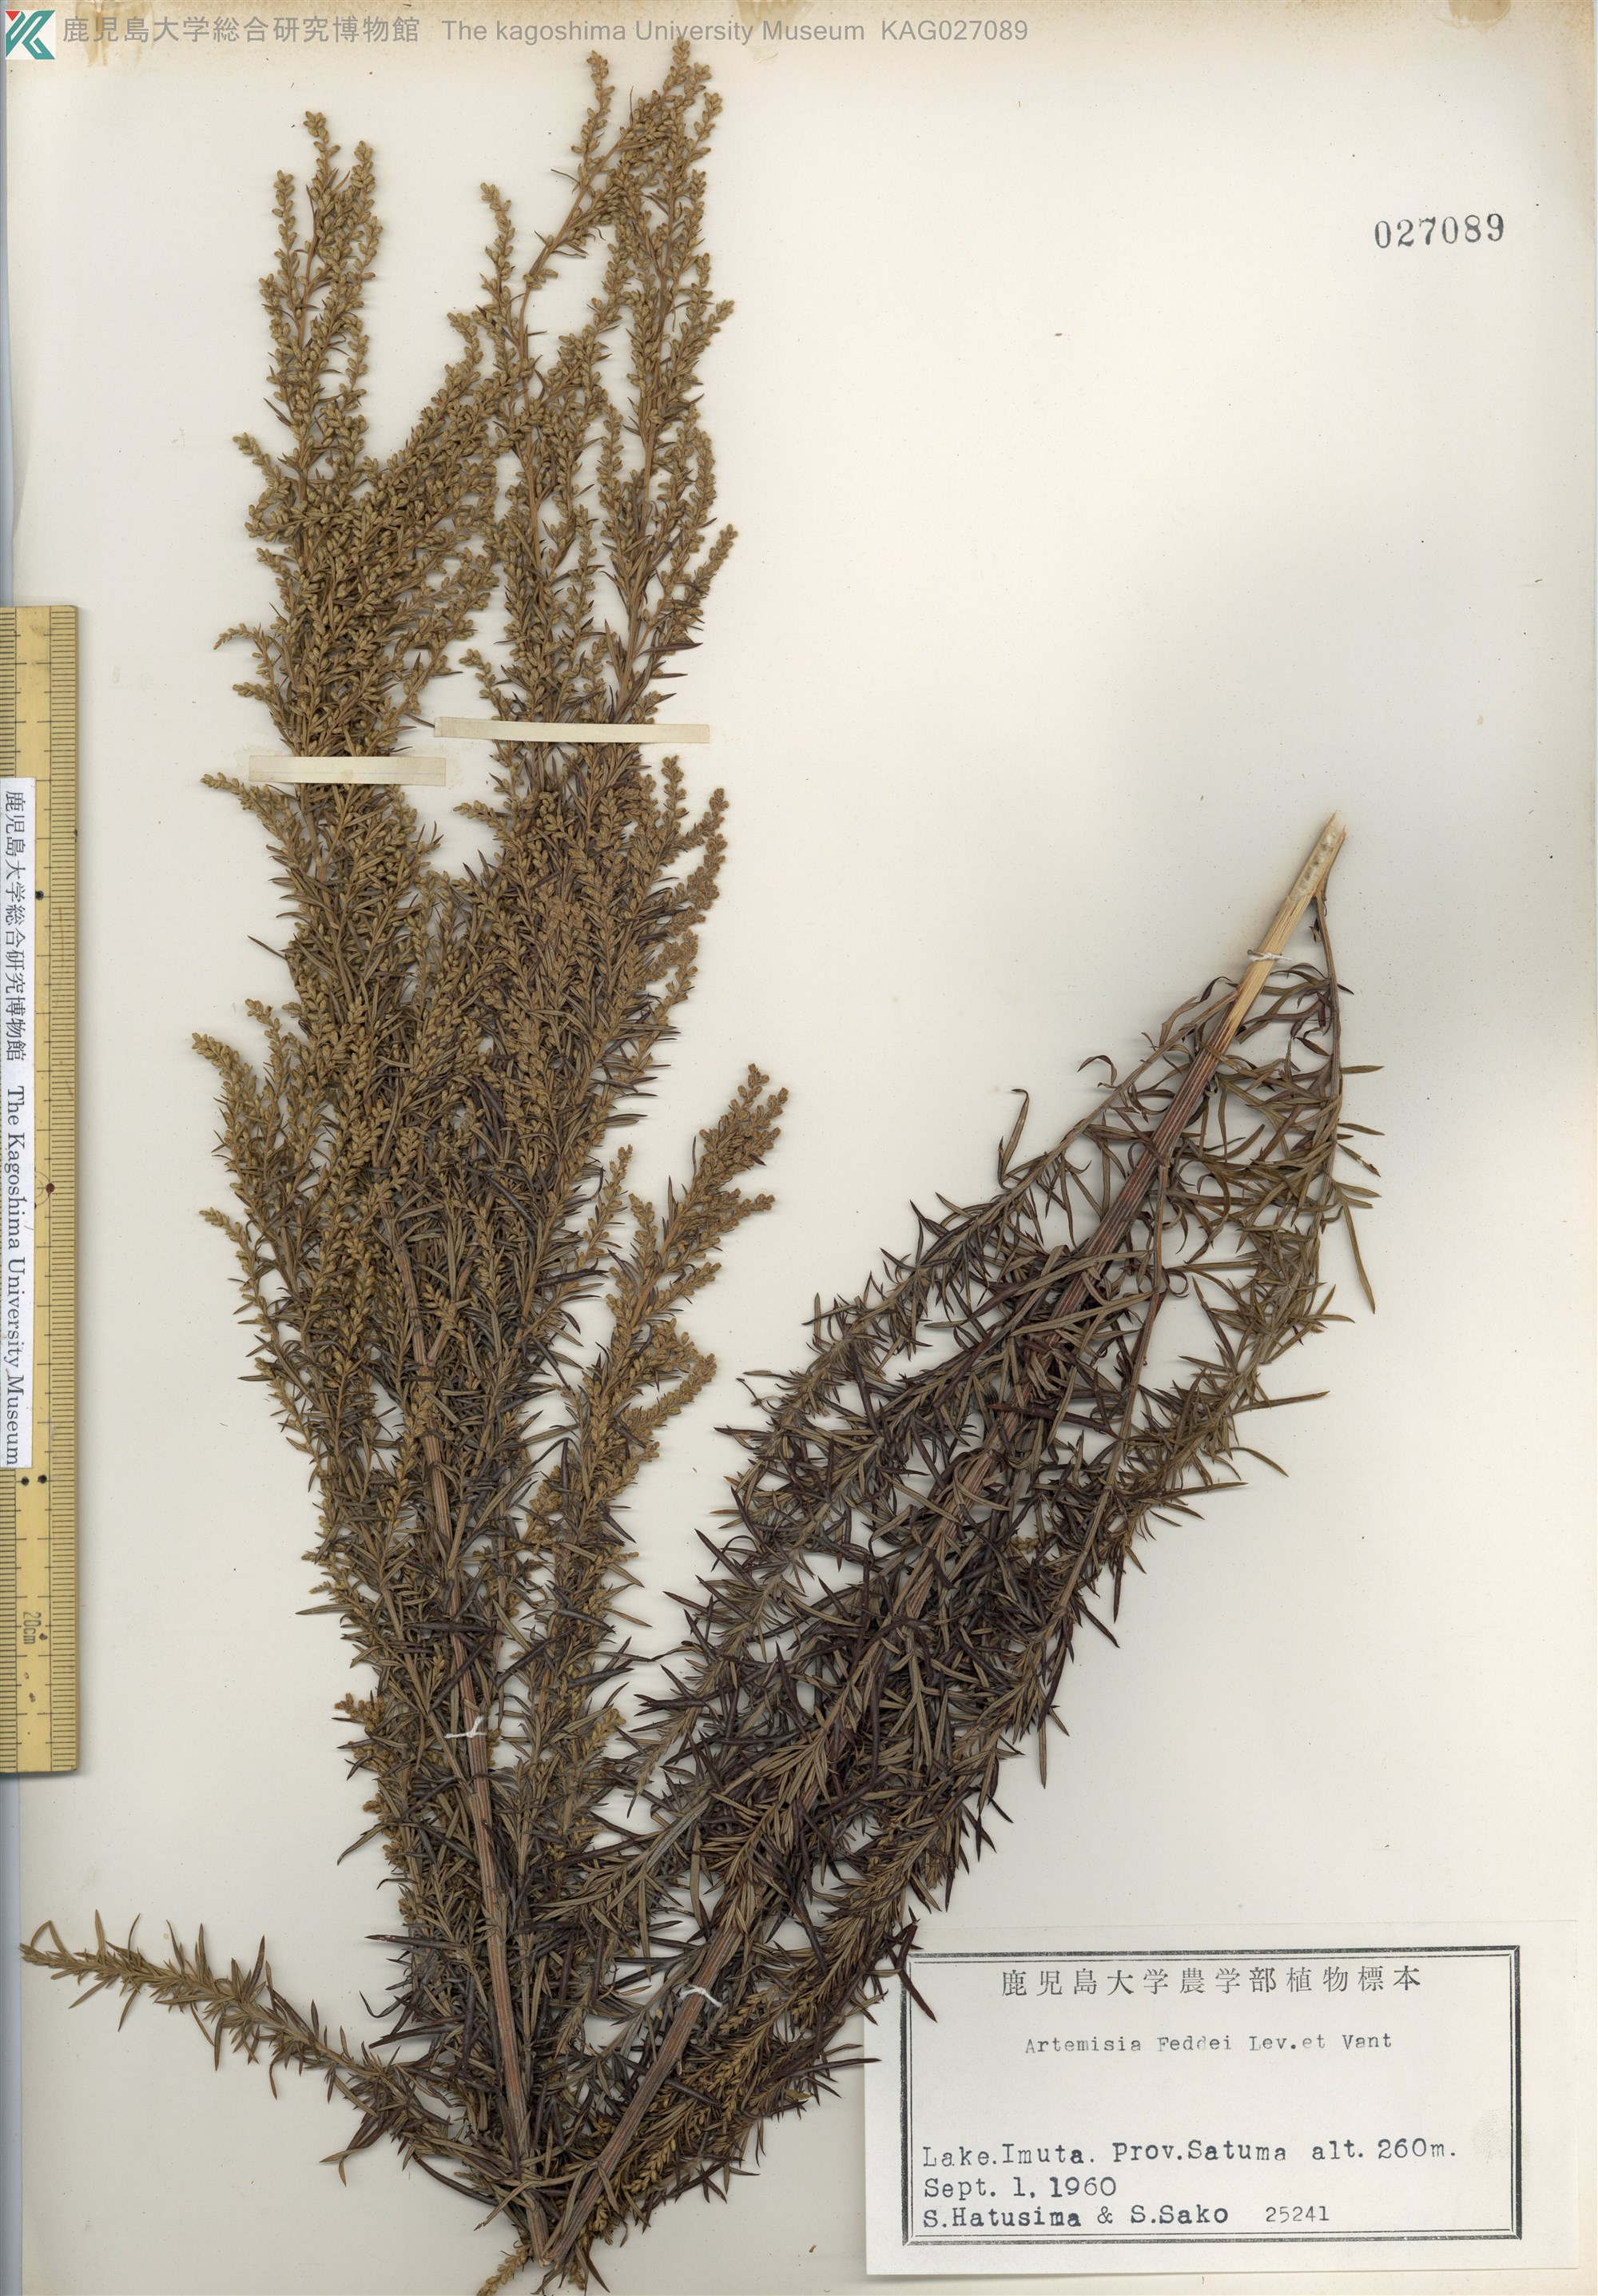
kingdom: Plantae
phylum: Tracheophyta
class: Magnoliopsida
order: Asterales
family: Asteraceae
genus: Artemisia
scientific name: Artemisia lancea
